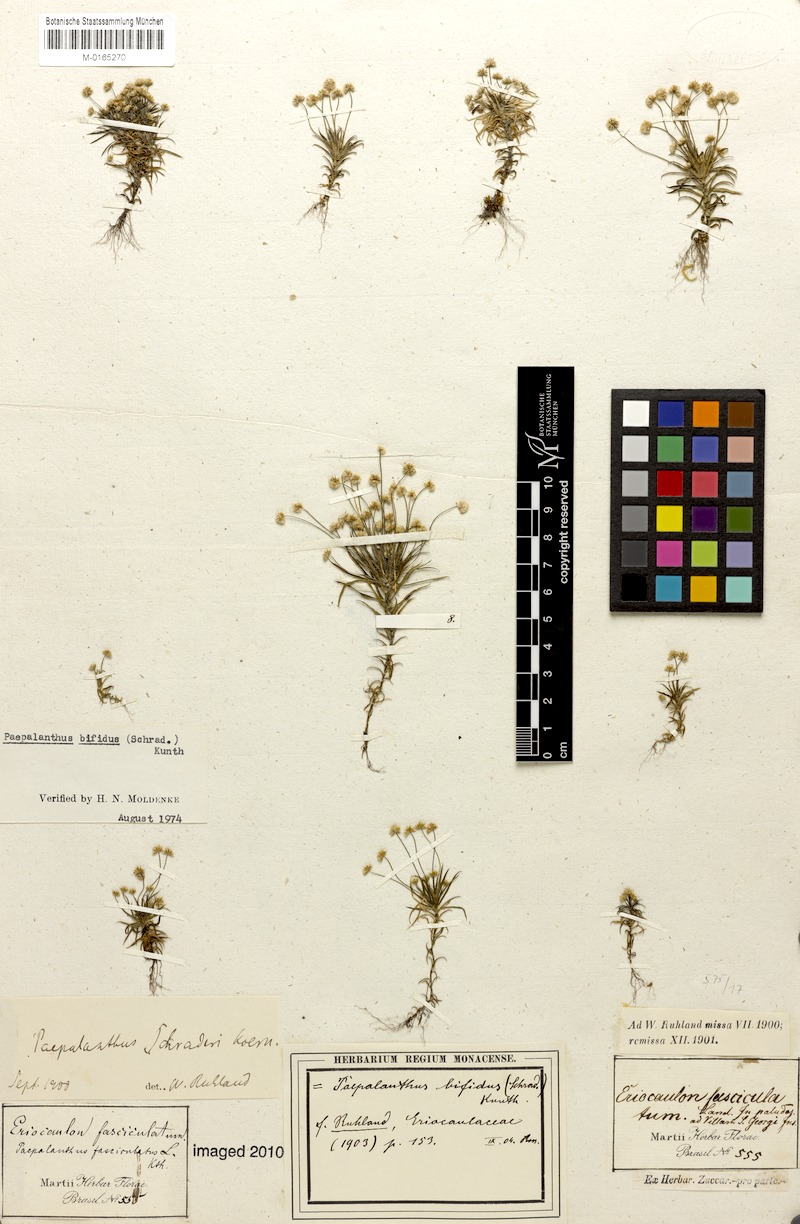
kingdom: Plantae
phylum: Tracheophyta
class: Liliopsida
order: Poales
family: Eriocaulaceae
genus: Paepalanthus
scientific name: Paepalanthus bifidus
